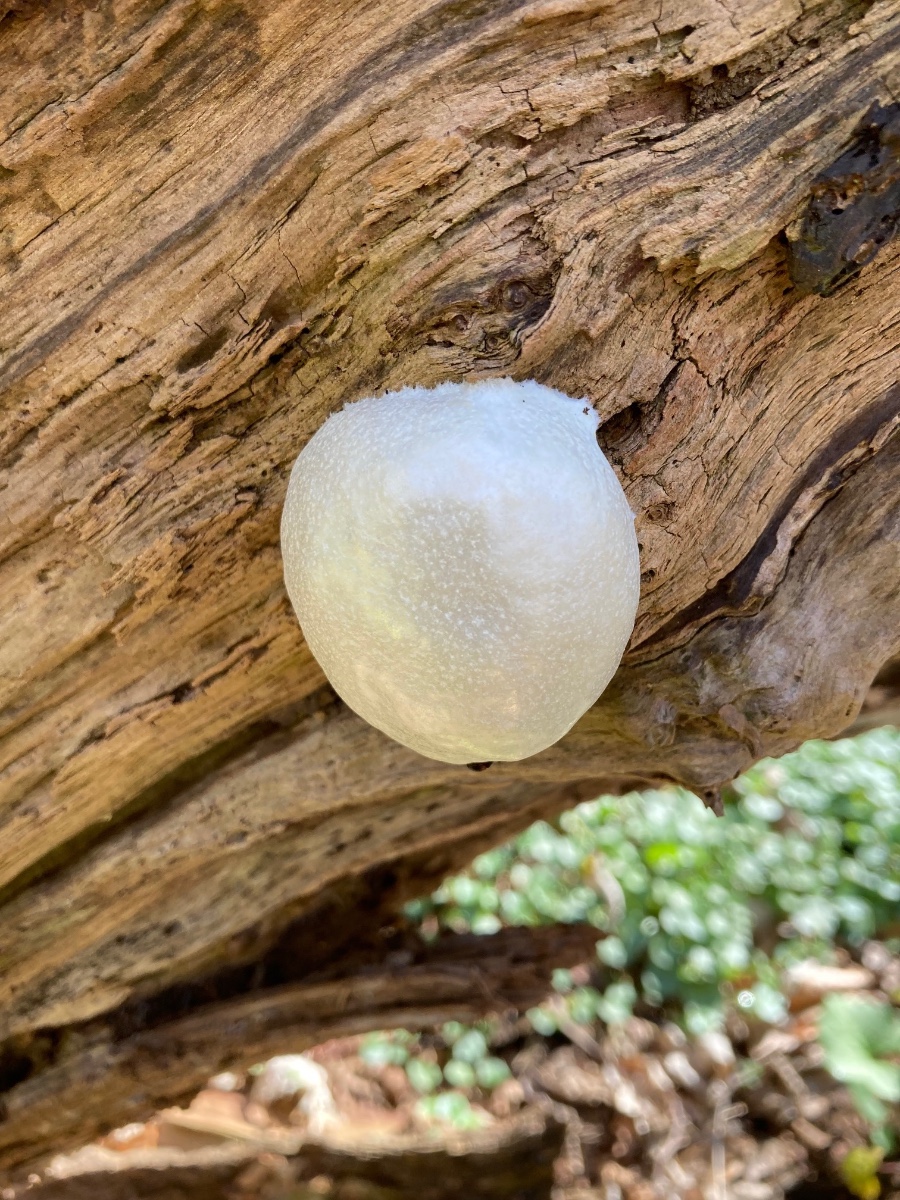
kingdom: Protozoa
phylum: Mycetozoa
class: Myxomycetes
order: Cribrariales
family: Tubiferaceae
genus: Reticularia
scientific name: Reticularia lycoperdon
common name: skinnende støvpude
